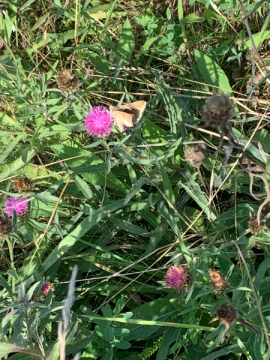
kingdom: Animalia
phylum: Arthropoda
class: Insecta
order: Lepidoptera
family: Hesperiidae
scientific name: Hesperiidae
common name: Skippers
